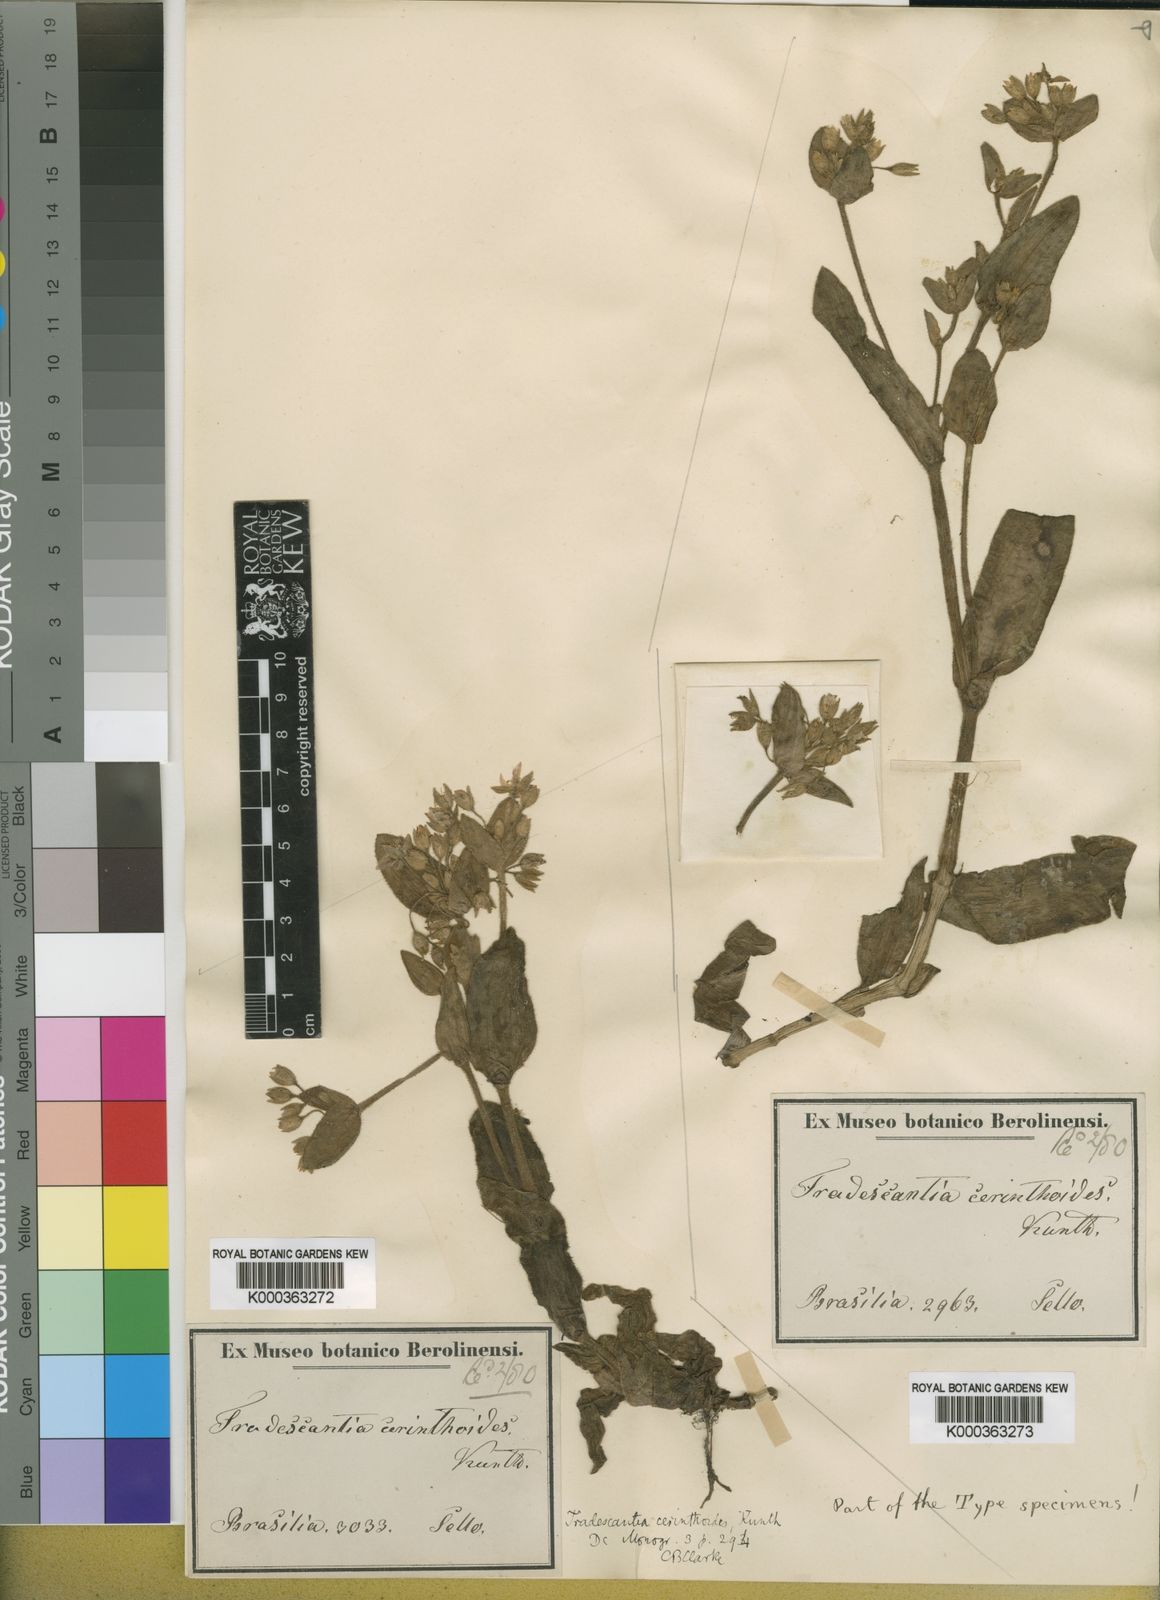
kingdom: Plantae
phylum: Tracheophyta
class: Liliopsida
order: Commelinales
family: Commelinaceae
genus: Tradescantia
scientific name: Tradescantia cerinthoides
